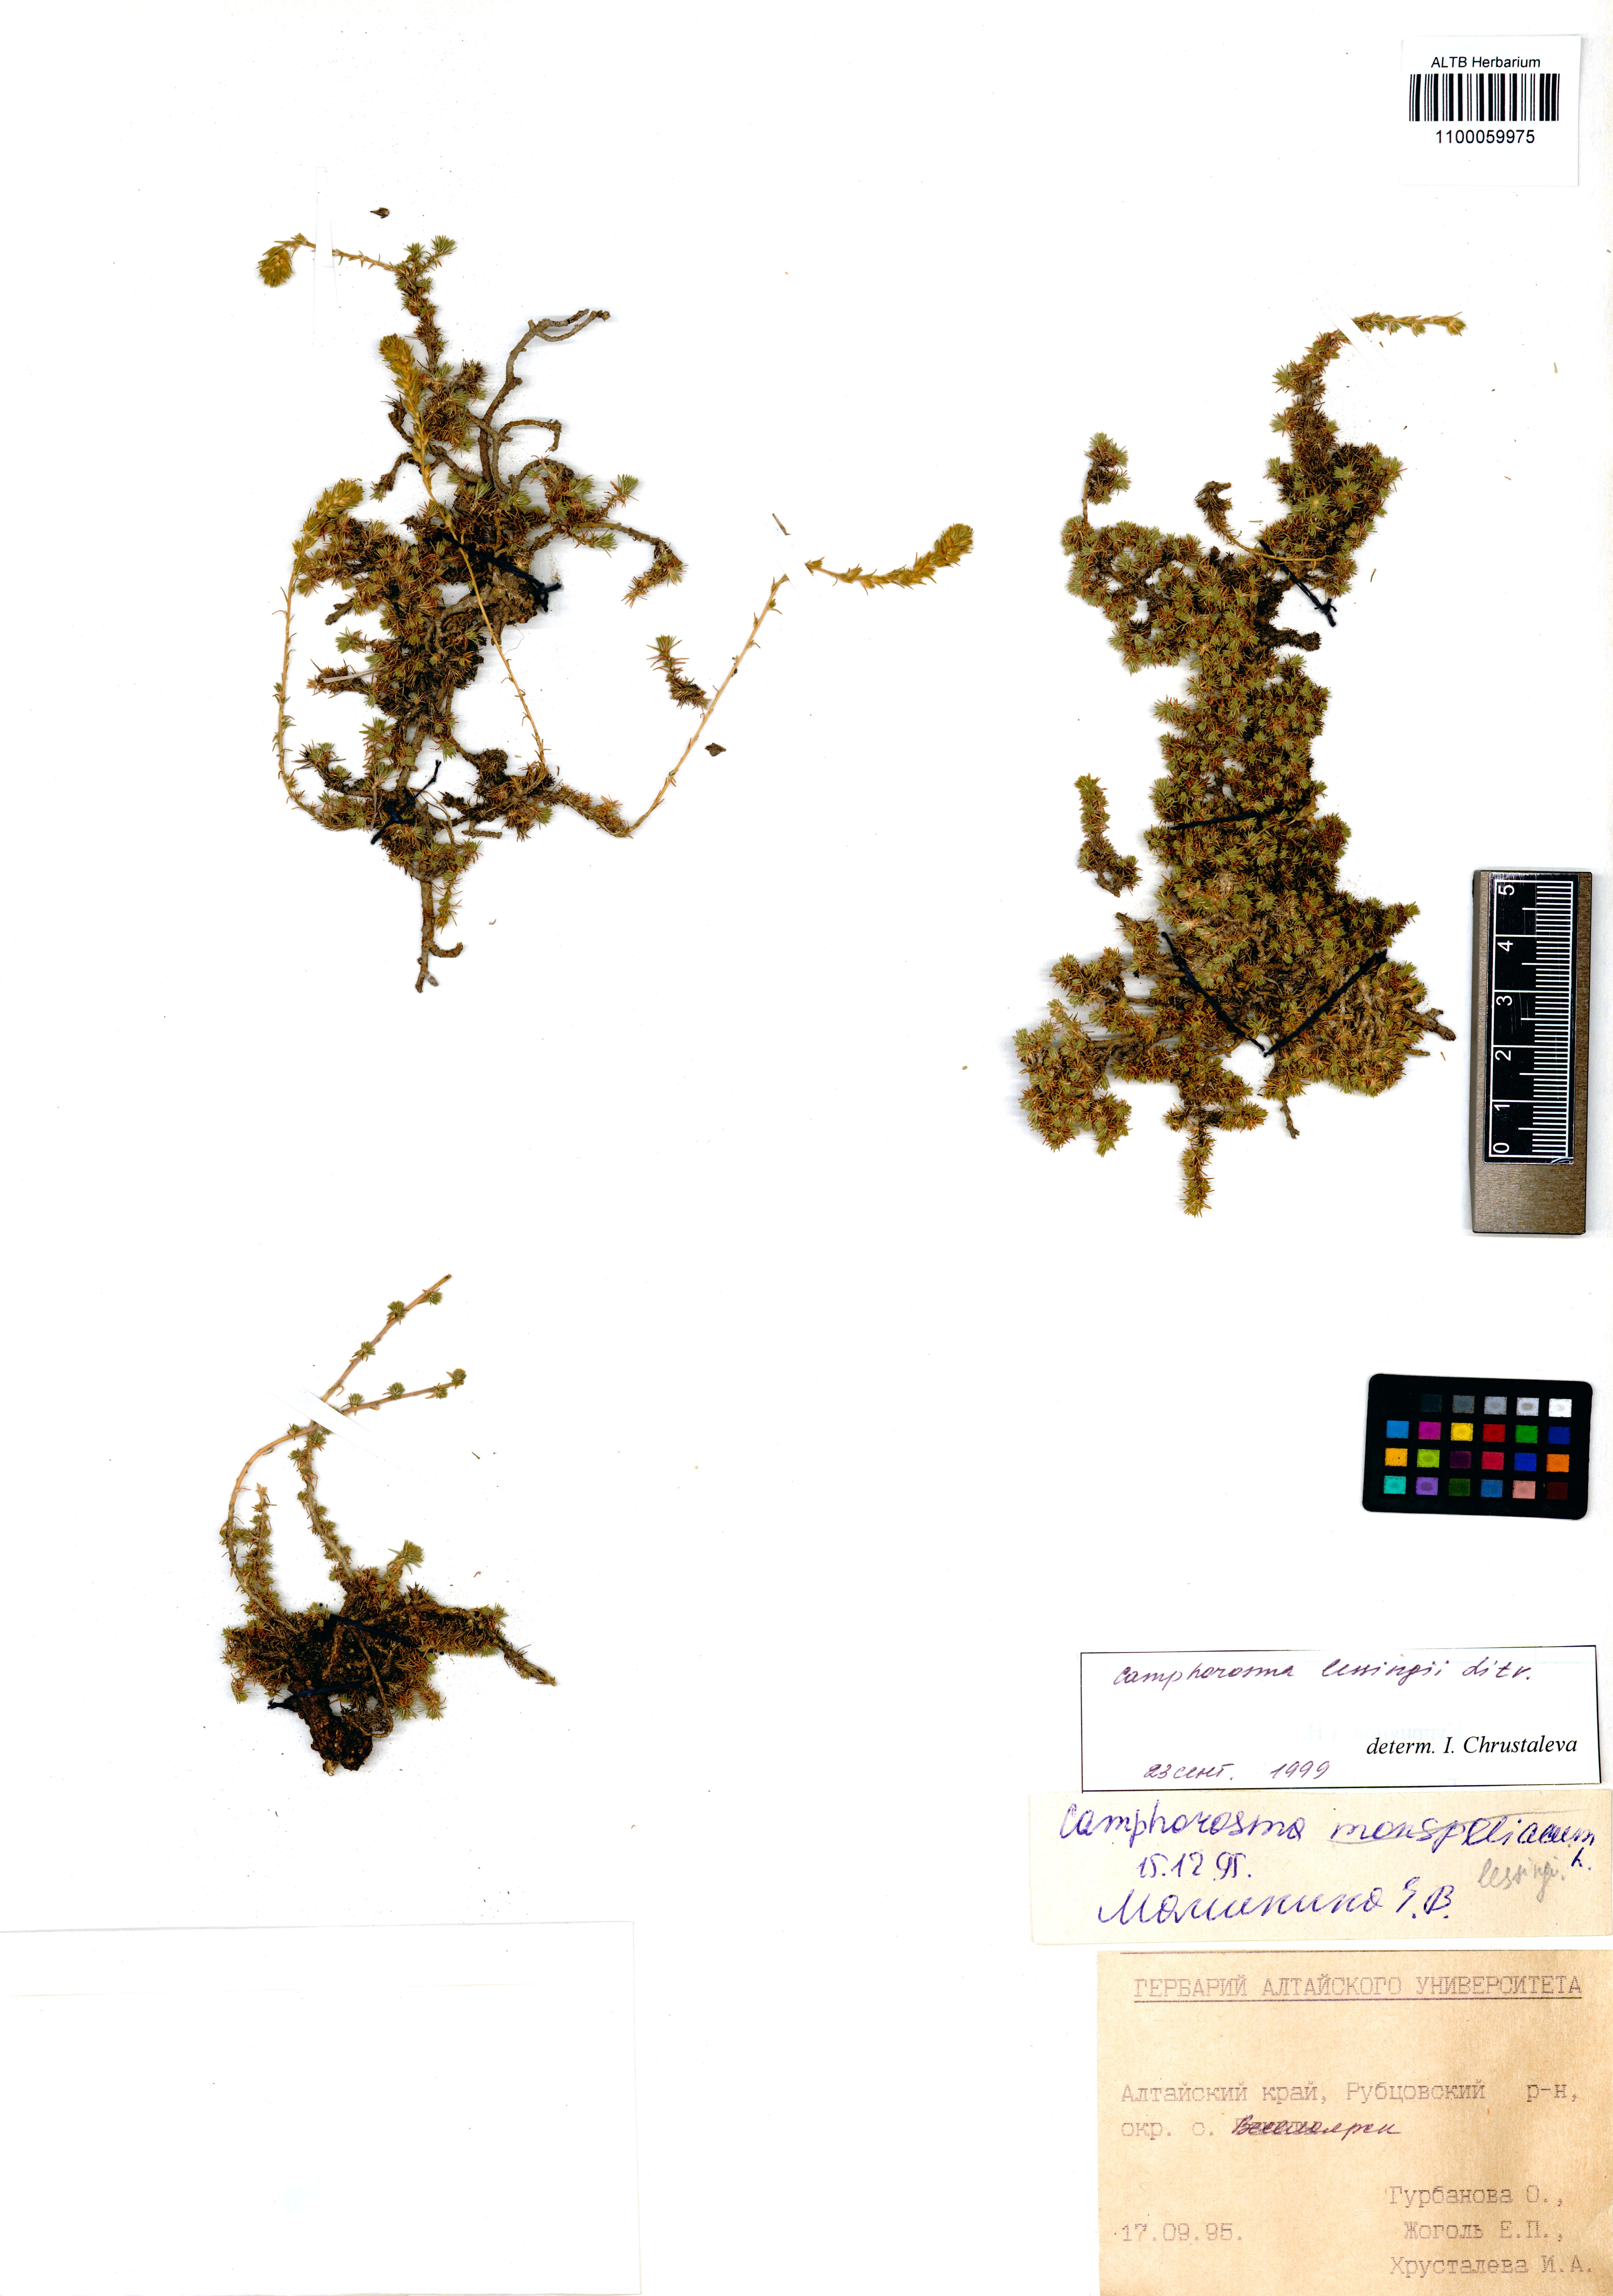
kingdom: Plantae
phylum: Tracheophyta
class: Magnoliopsida
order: Caryophyllales
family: Amaranthaceae
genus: Camphorosma
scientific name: Camphorosma monspeliaca
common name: Camphorfume
